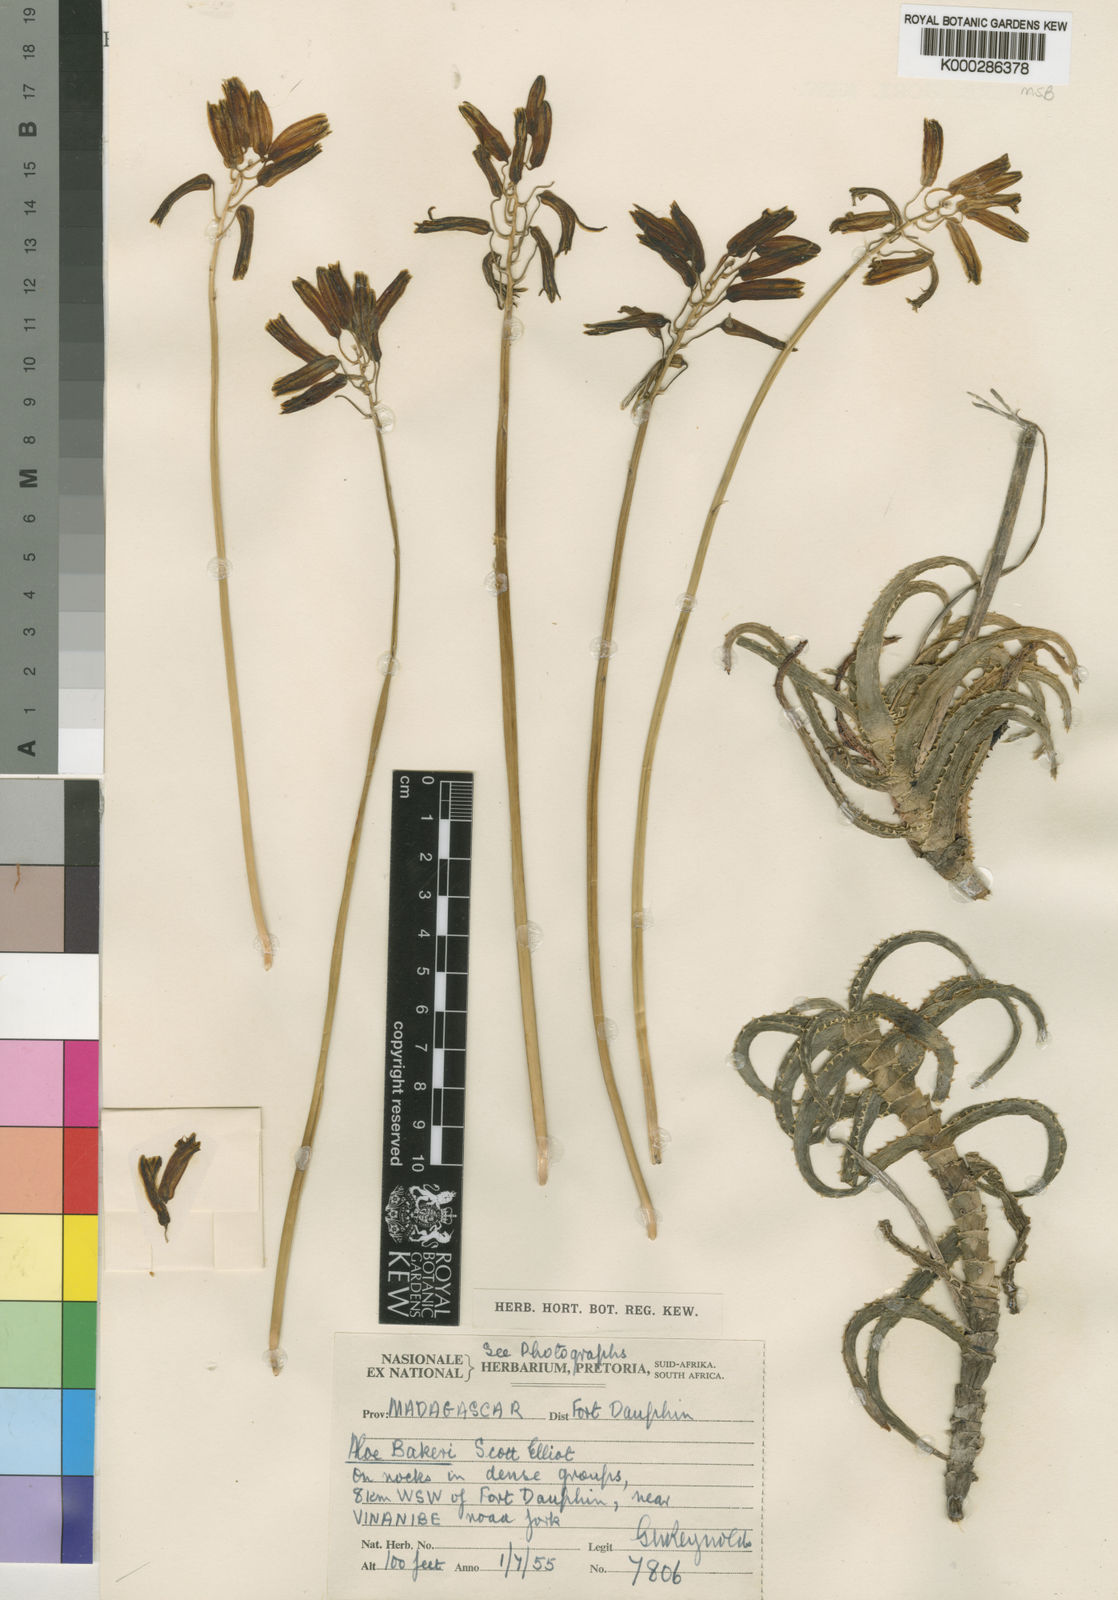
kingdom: Plantae
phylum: Tracheophyta
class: Liliopsida
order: Asparagales
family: Asphodelaceae
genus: Aloe
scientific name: Aloe bakeri
